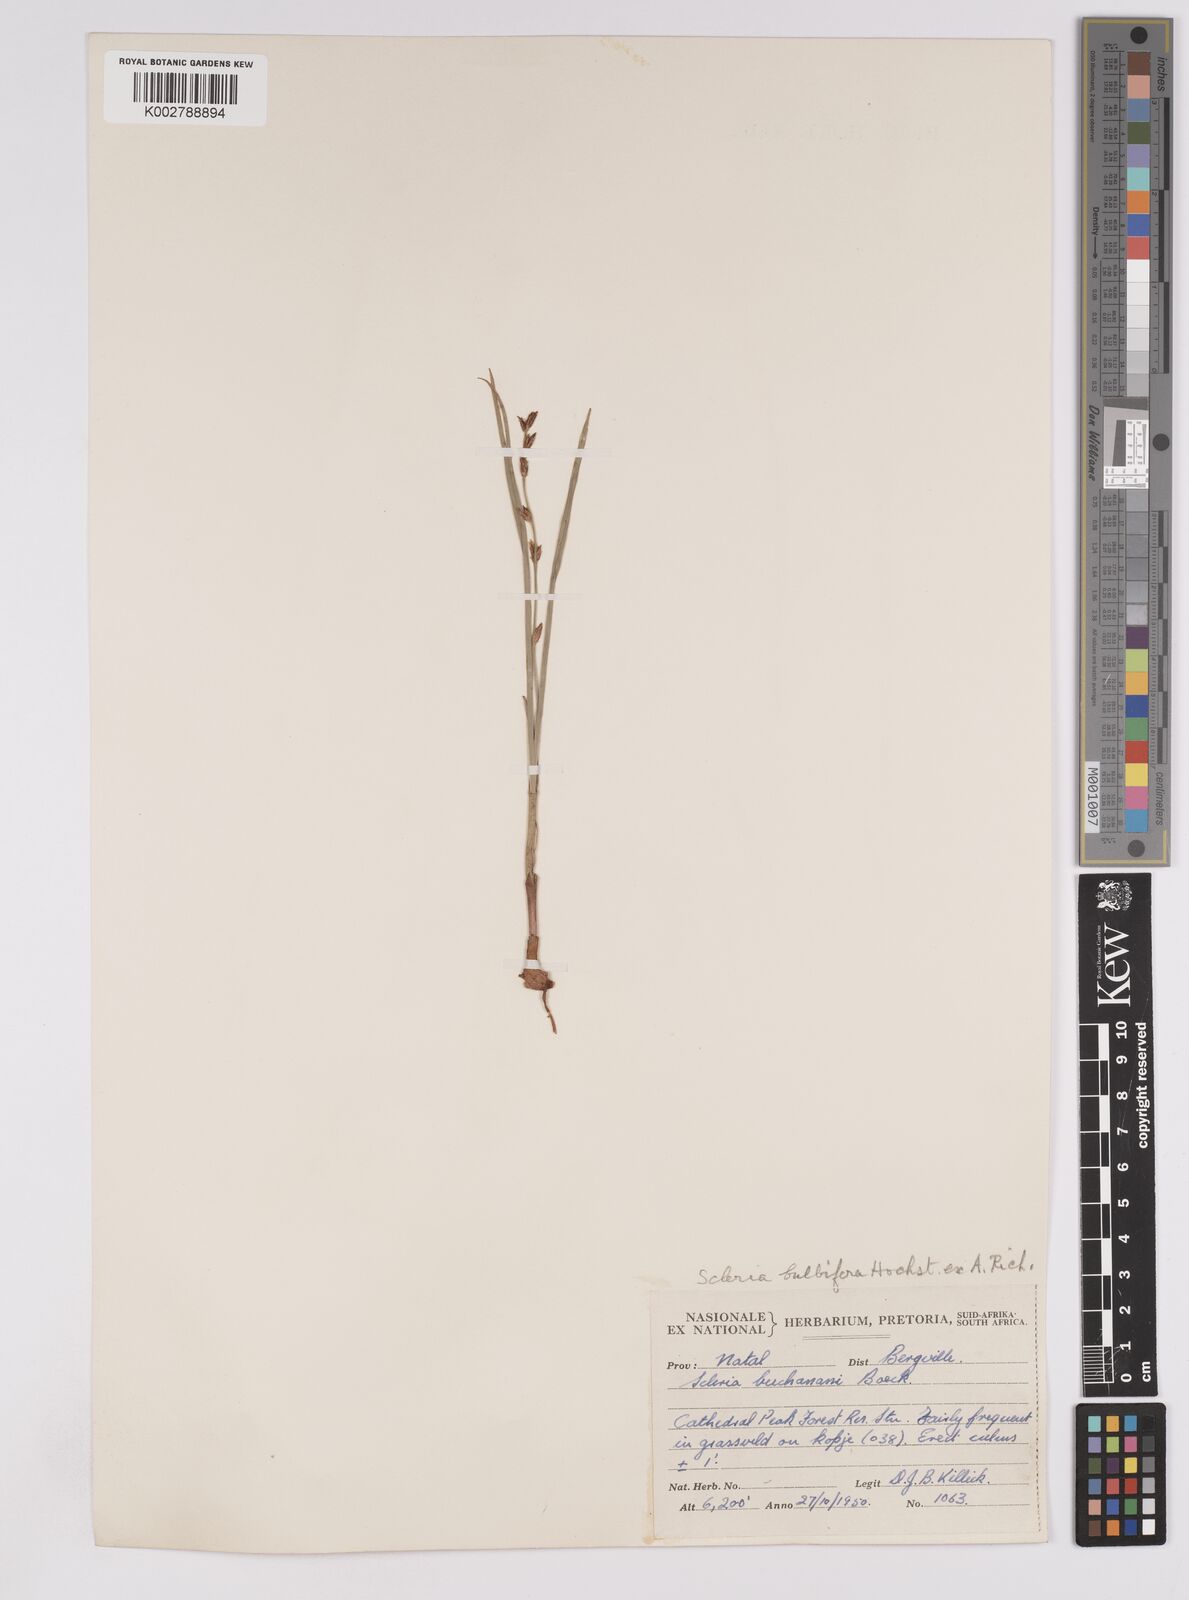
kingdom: Plantae
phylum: Tracheophyta
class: Liliopsida
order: Poales
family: Cyperaceae
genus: Scleria
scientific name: Scleria bulbifera
